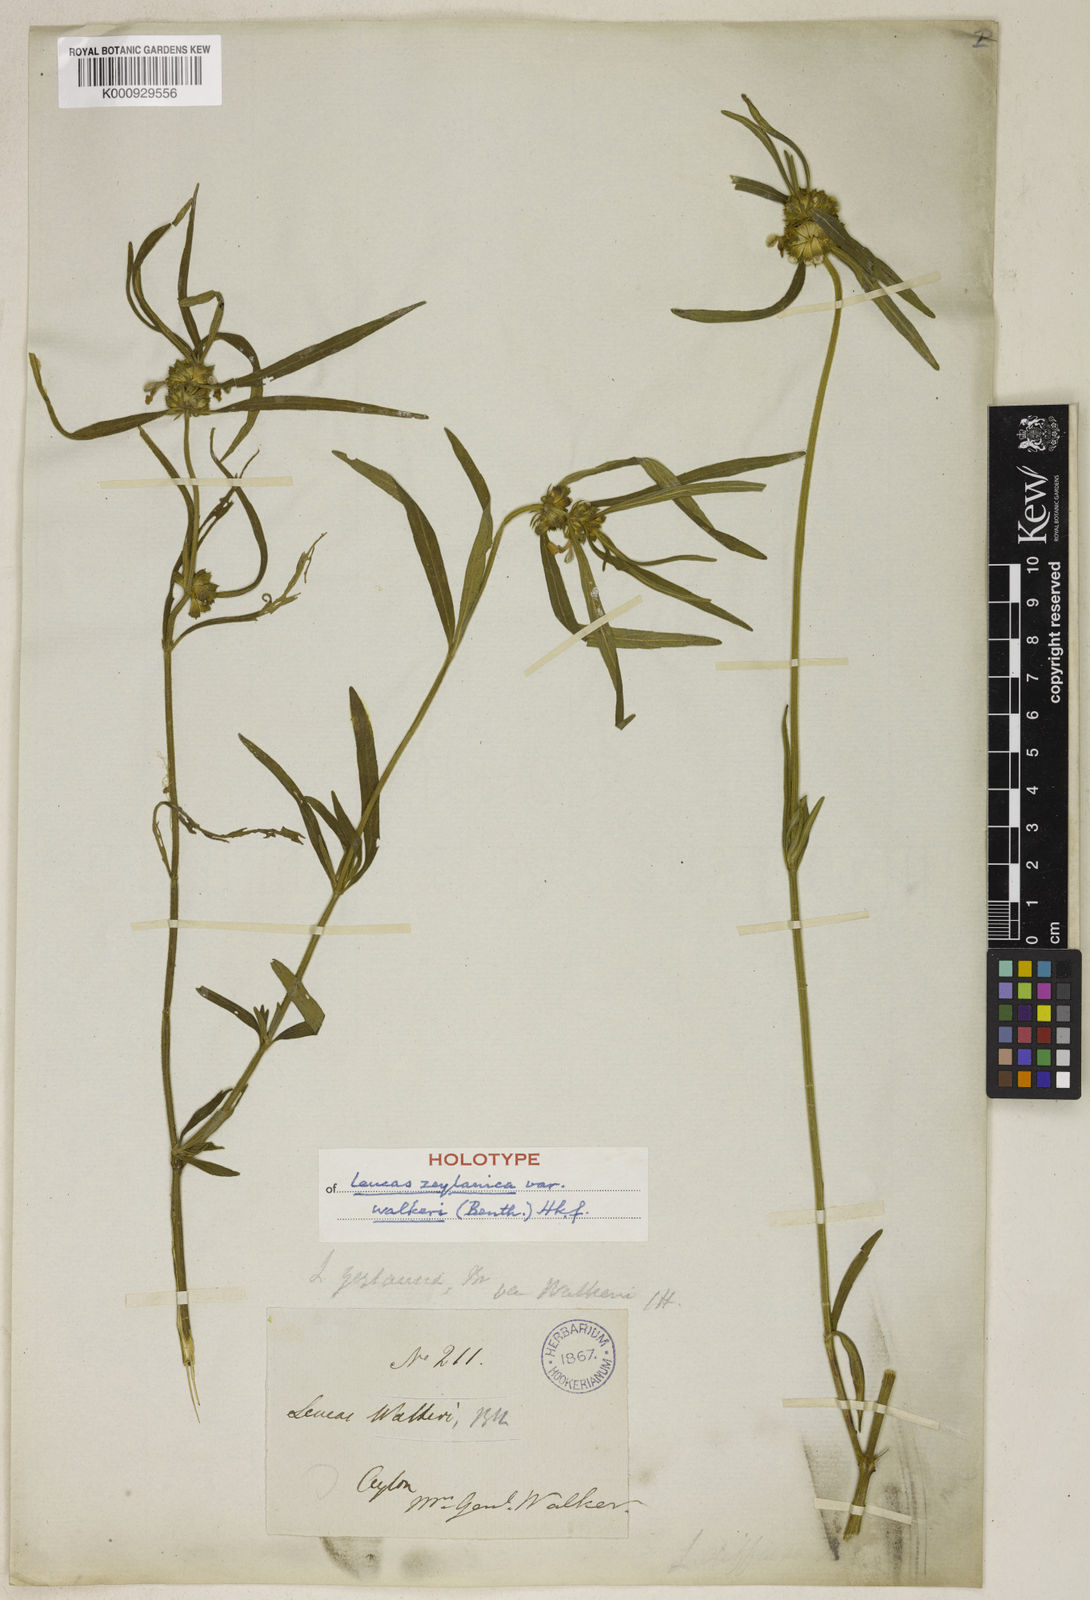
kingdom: Plantae
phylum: Tracheophyta
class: Magnoliopsida
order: Lamiales
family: Lamiaceae
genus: Leucas
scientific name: Leucas zeylanica
